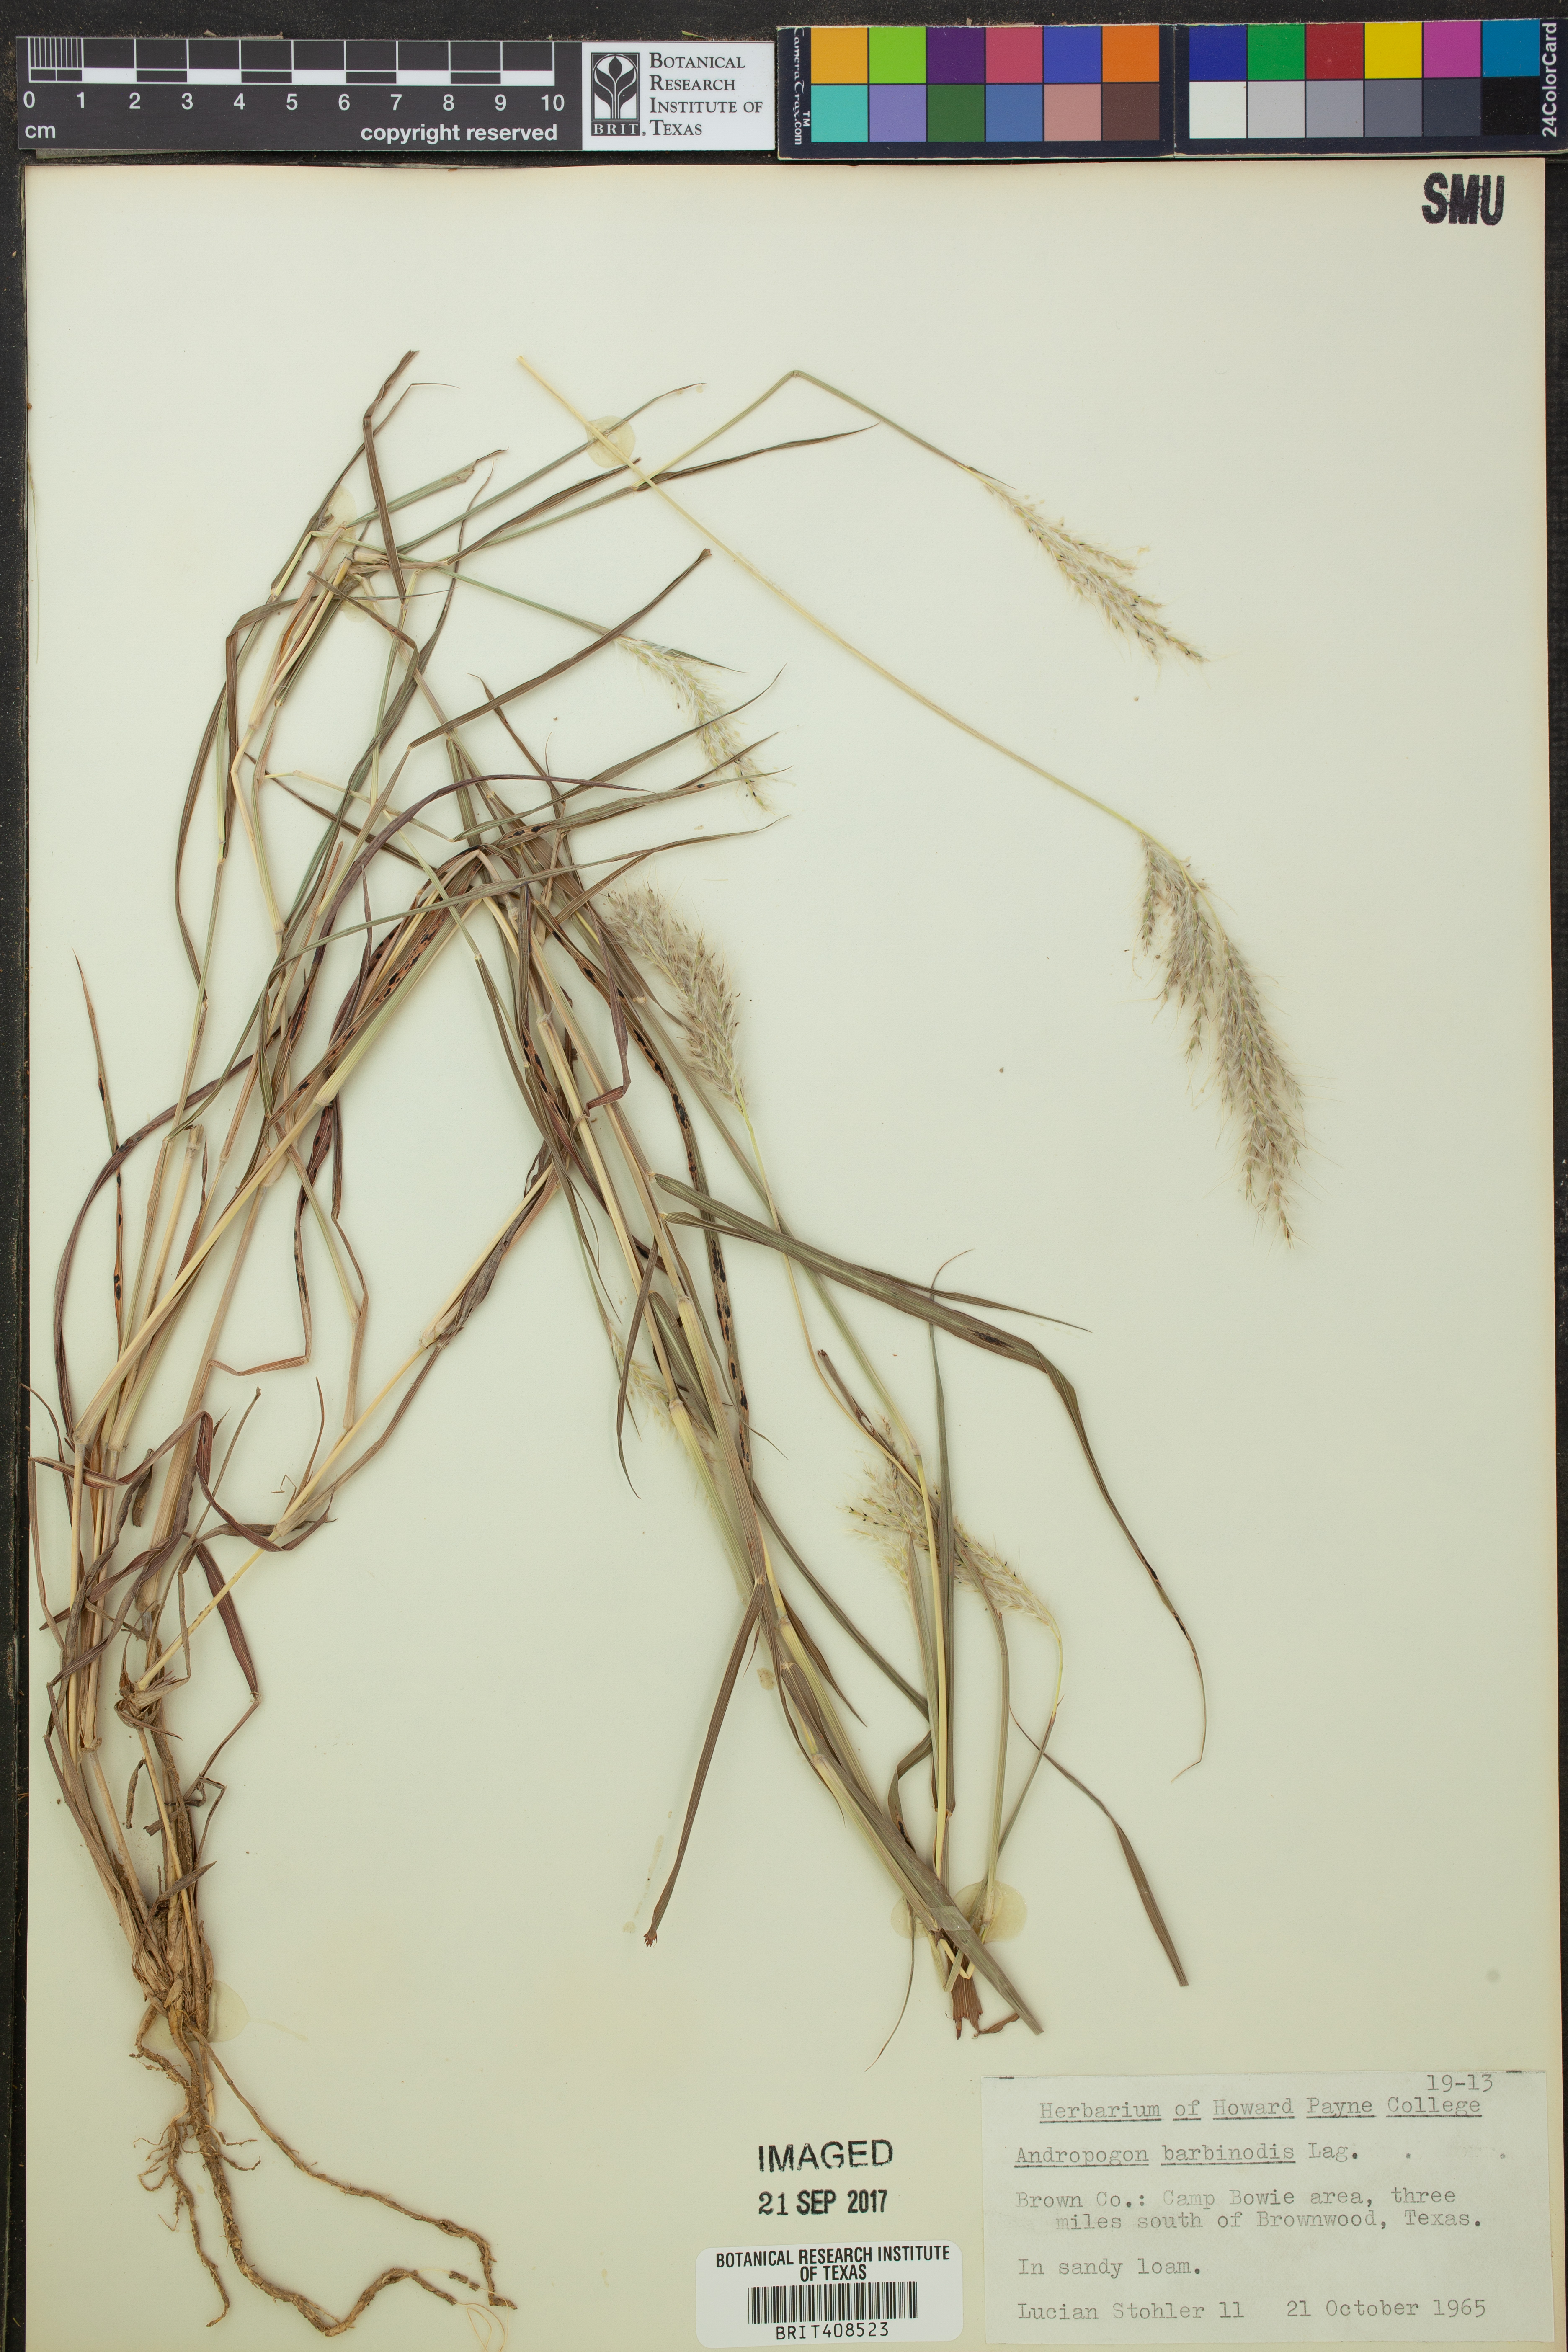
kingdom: Plantae
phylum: Tracheophyta
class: Liliopsida
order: Poales
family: Poaceae
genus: Bothriochloa
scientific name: Bothriochloa barbinodis
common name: Cane bluestem
